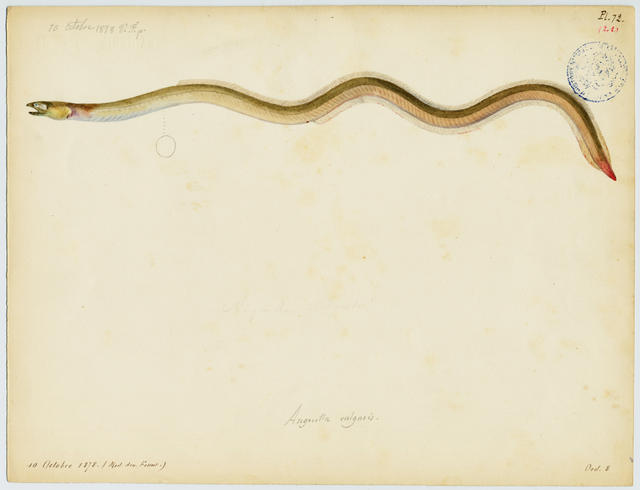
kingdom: Animalia
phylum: Chordata
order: Anguilliformes
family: Ophichthidae
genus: Ophichthus
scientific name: Ophichthus rufus
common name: Rufus snake eel
